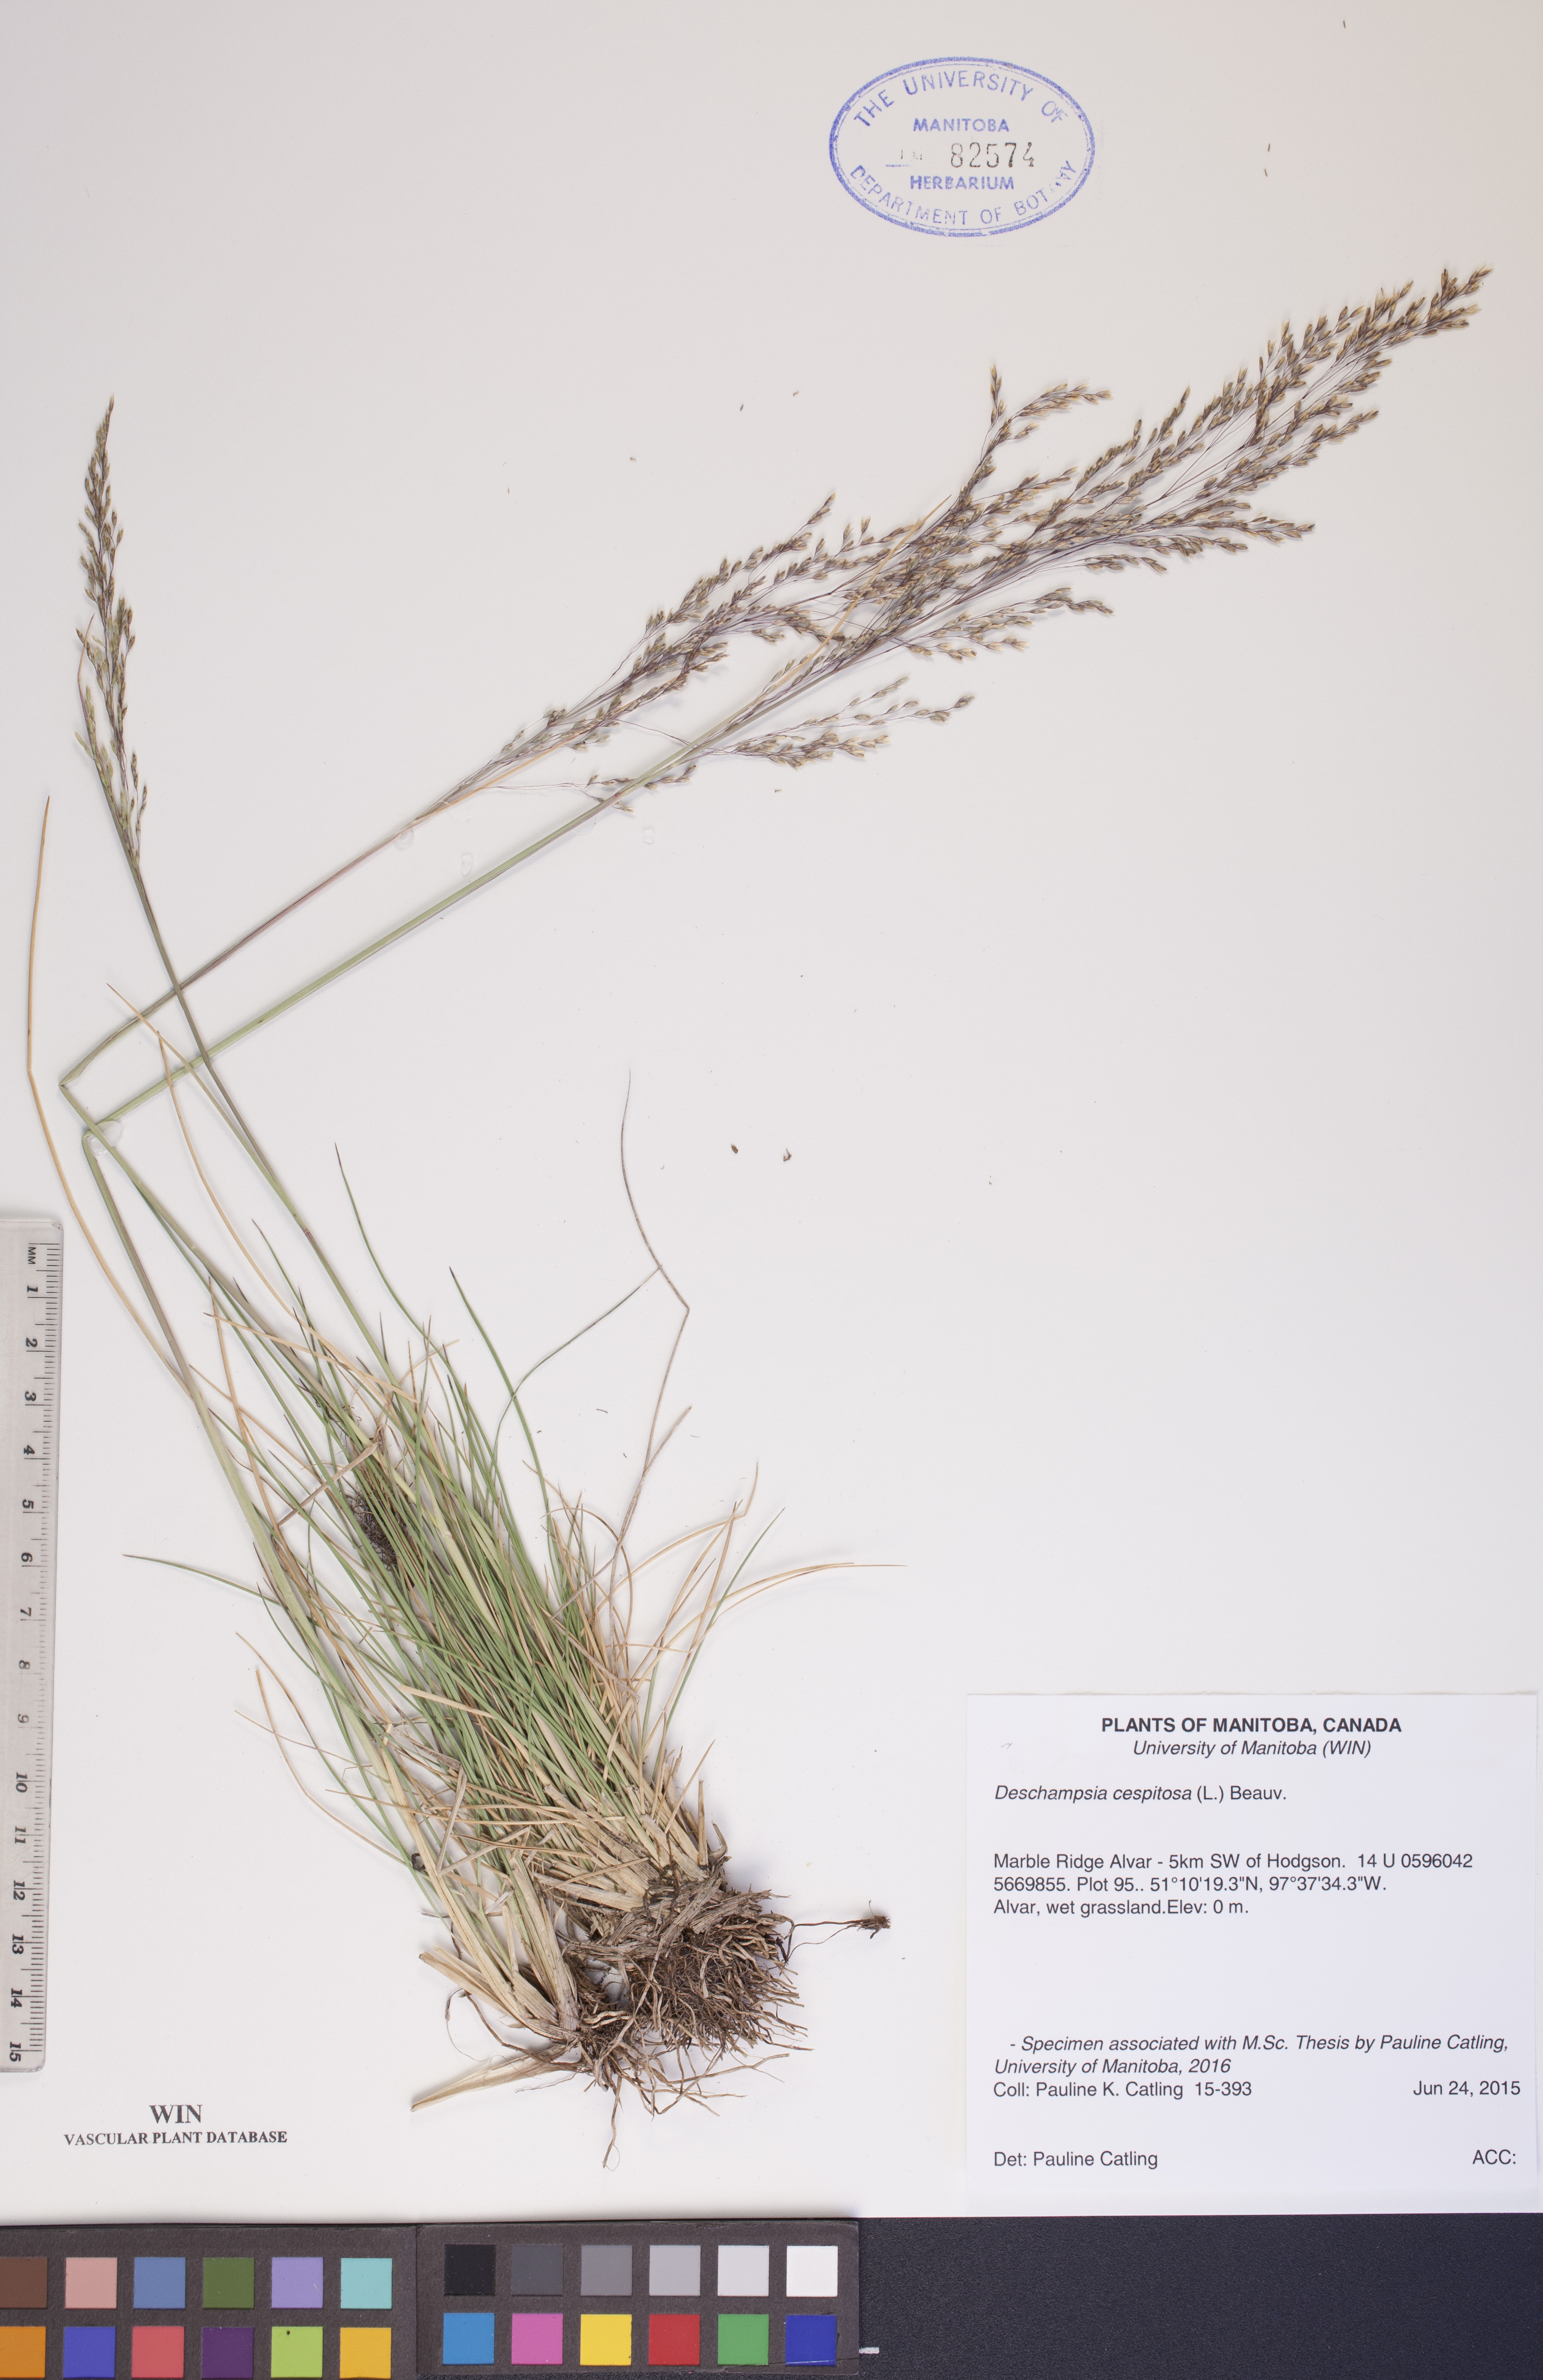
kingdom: Plantae
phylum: Tracheophyta
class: Liliopsida
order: Poales
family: Poaceae
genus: Deschampsia
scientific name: Deschampsia cespitosa
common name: Tufted hair-grass
